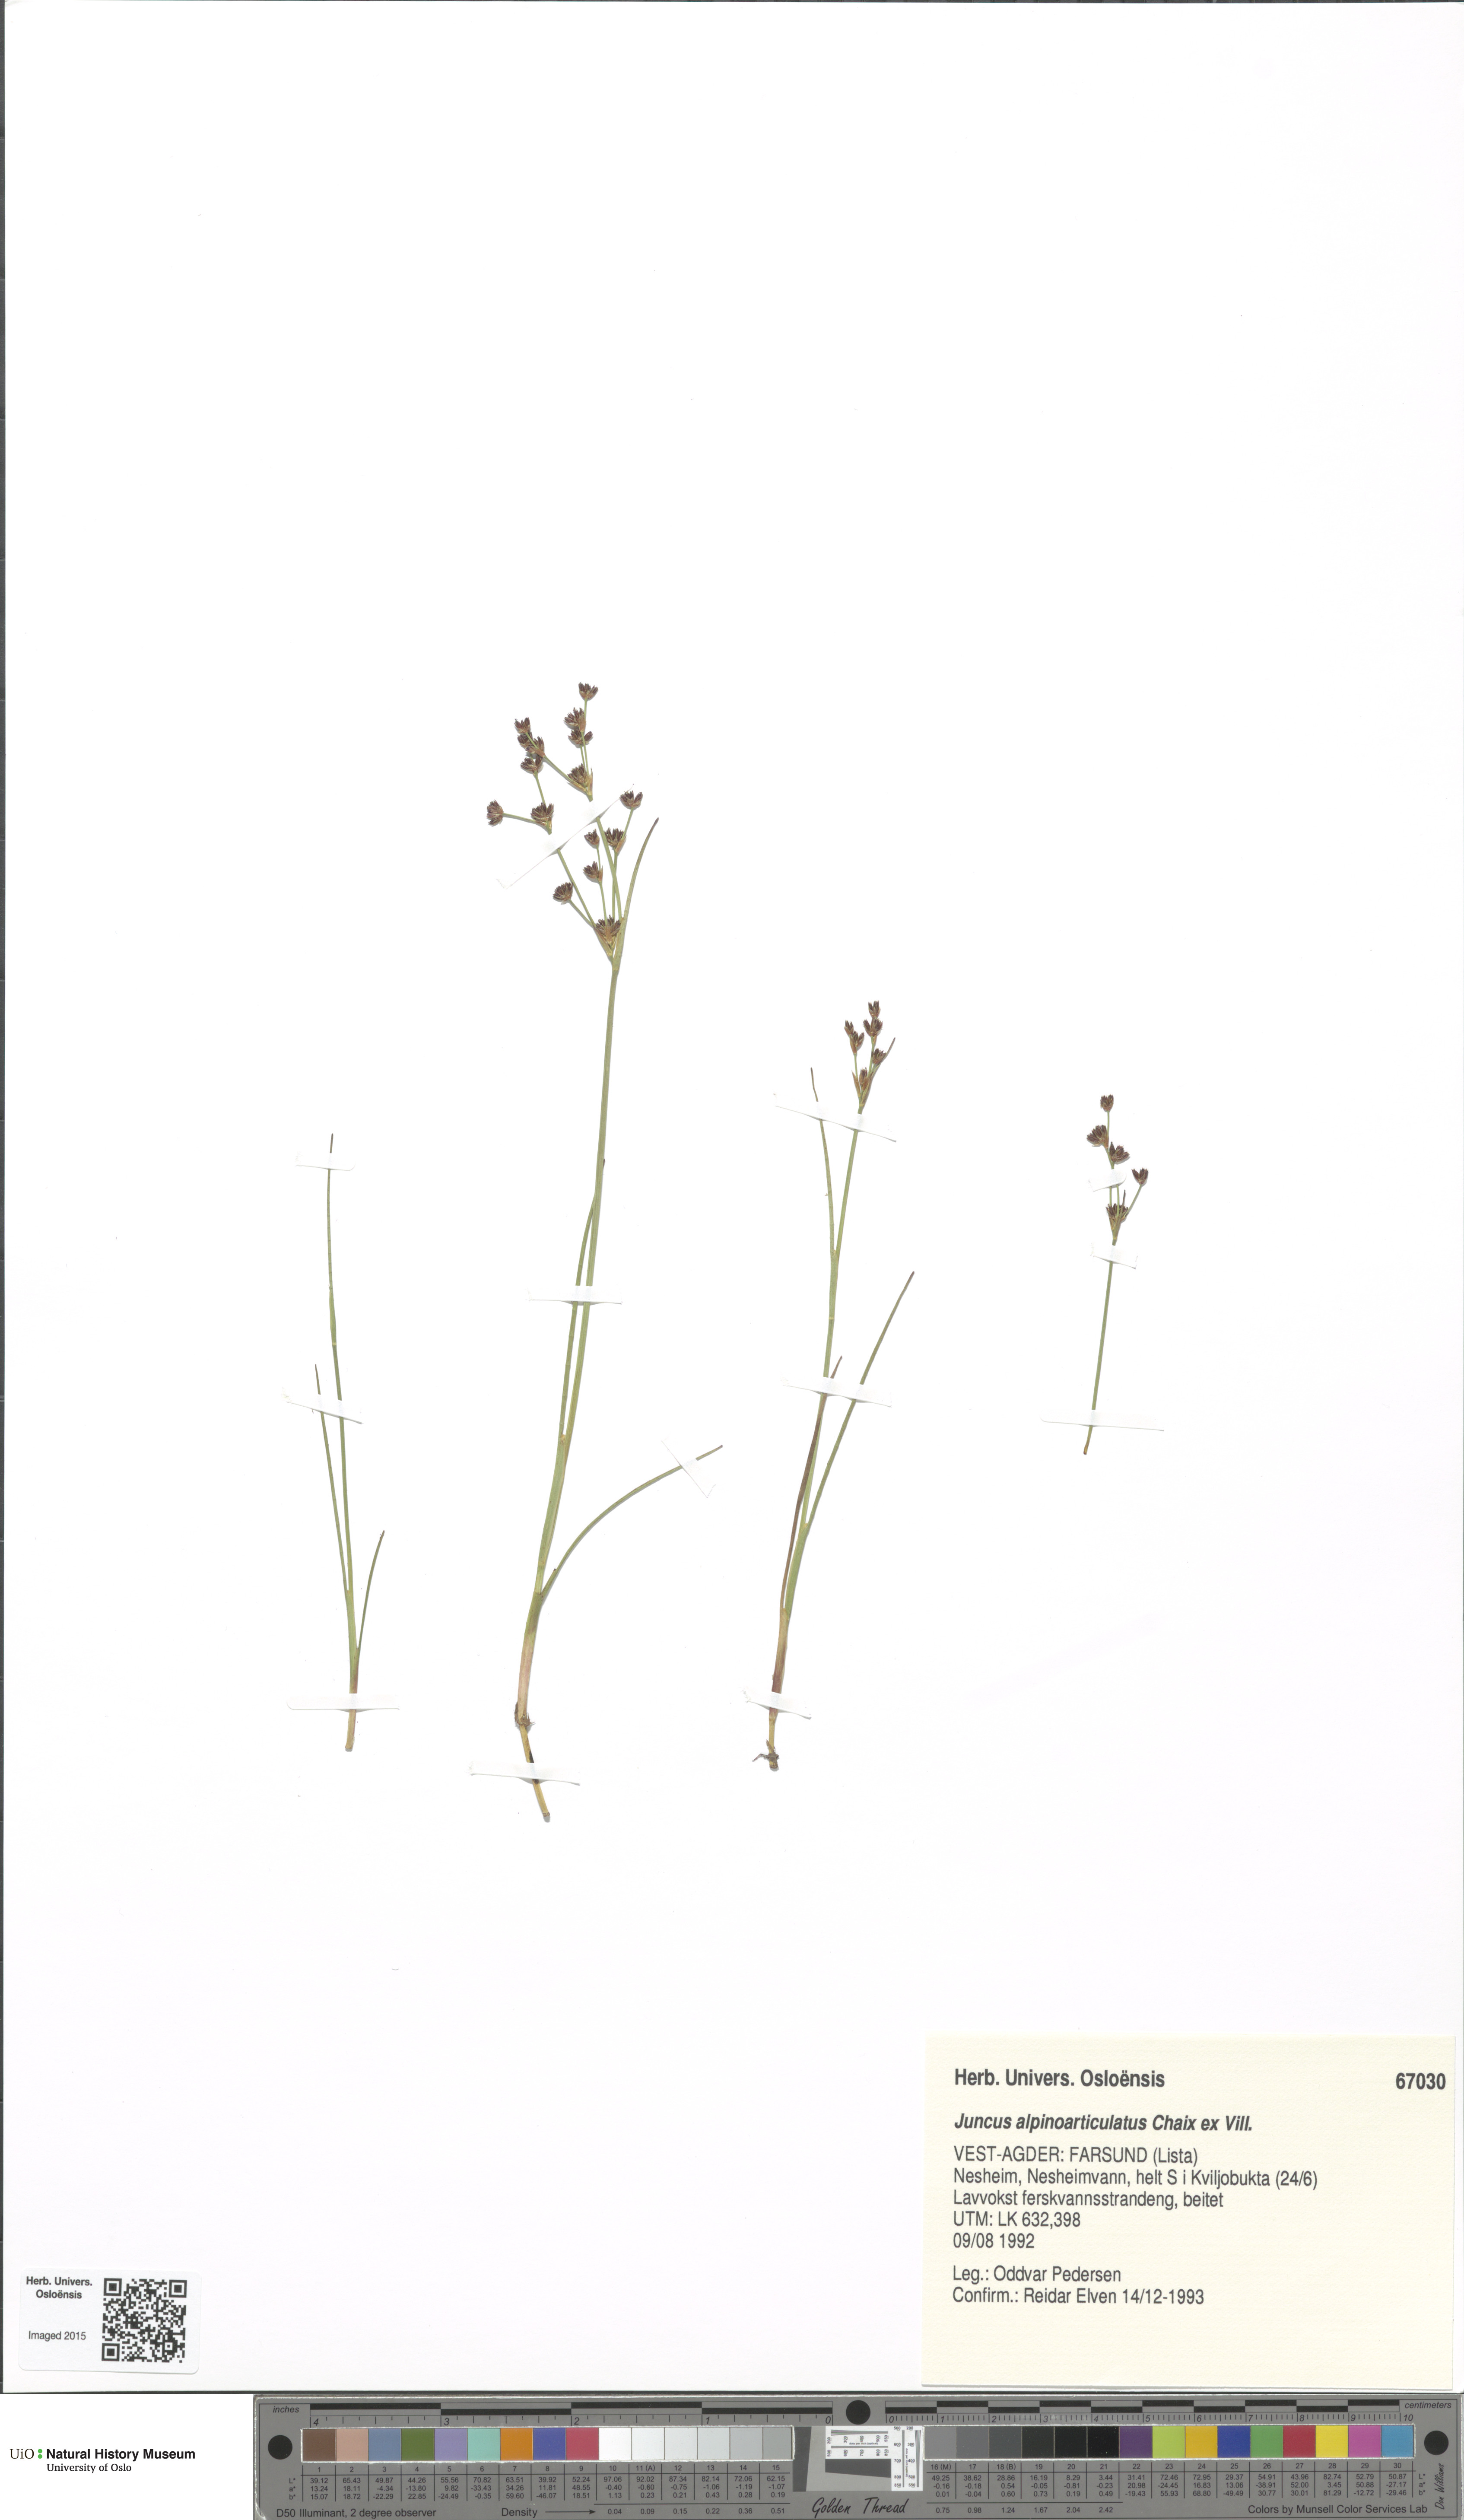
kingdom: Plantae
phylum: Tracheophyta
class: Liliopsida
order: Poales
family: Juncaceae
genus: Juncus
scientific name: Juncus alpinoarticulatus
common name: Alpine rush
